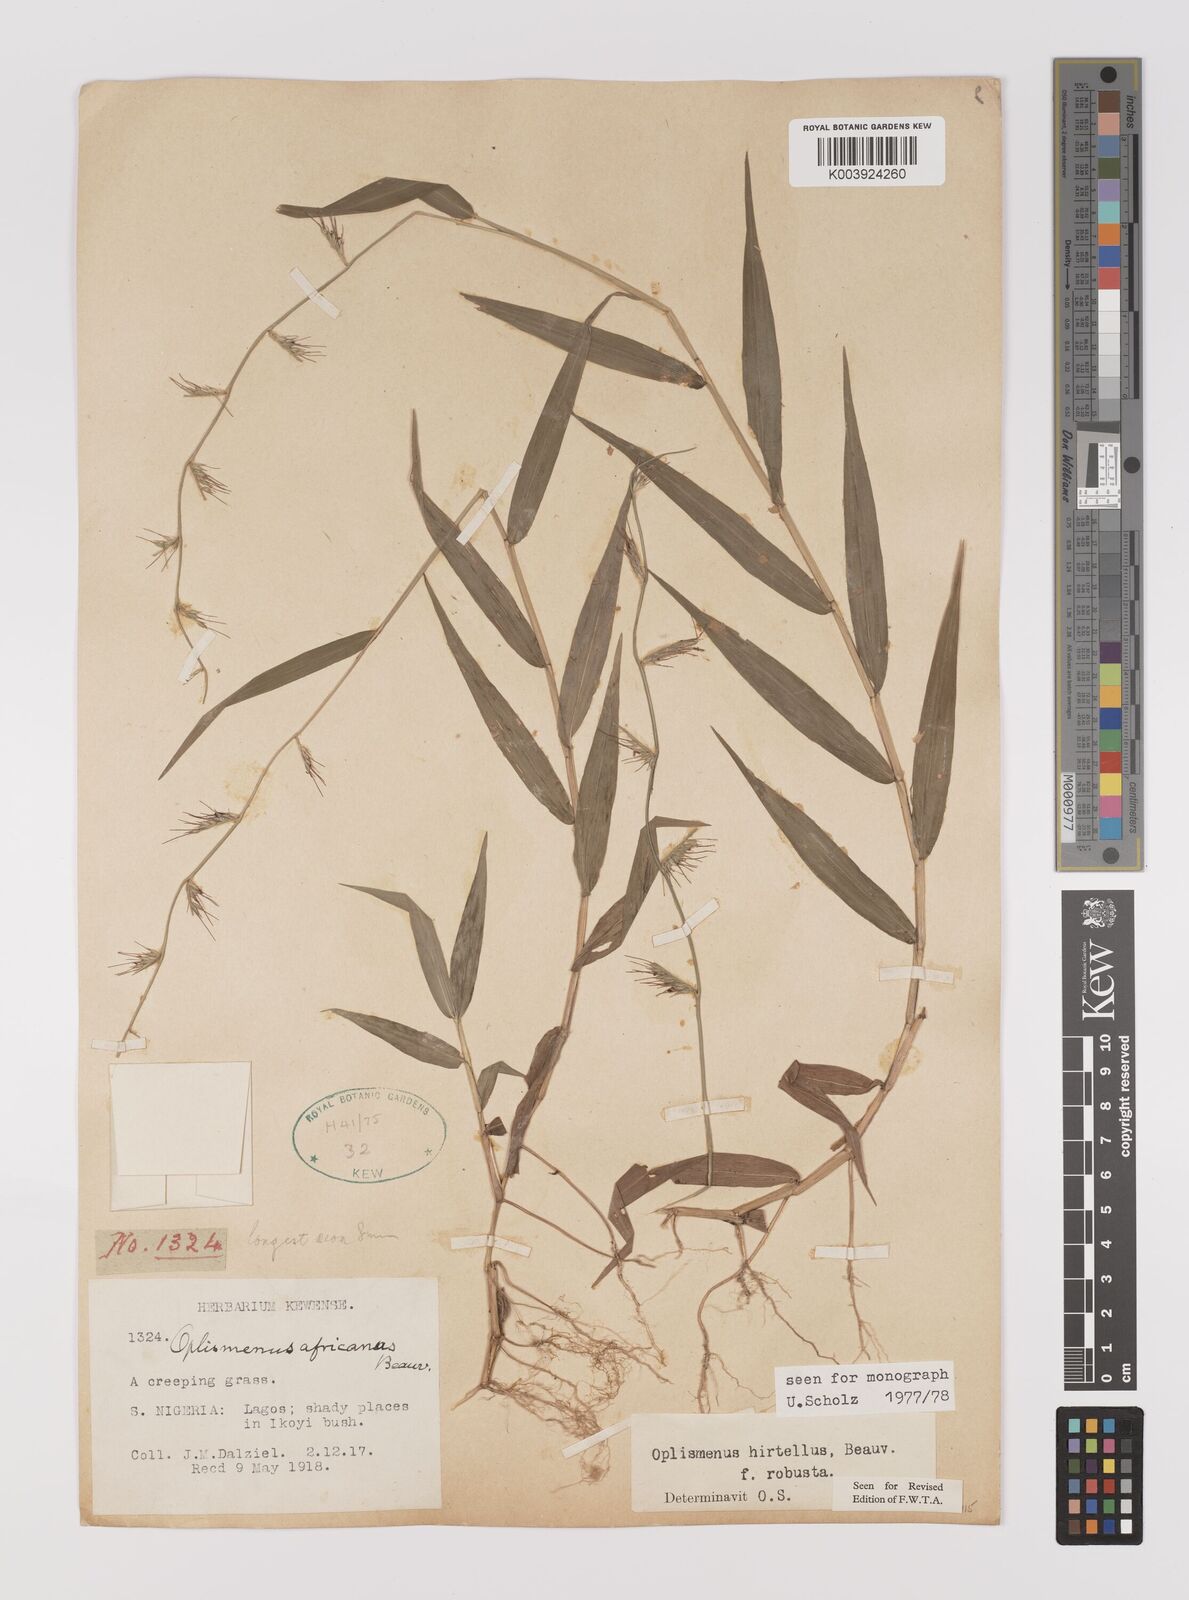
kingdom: Plantae
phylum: Tracheophyta
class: Liliopsida
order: Poales
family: Poaceae
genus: Oplismenus
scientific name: Oplismenus hirtellus
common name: Basketgrass
